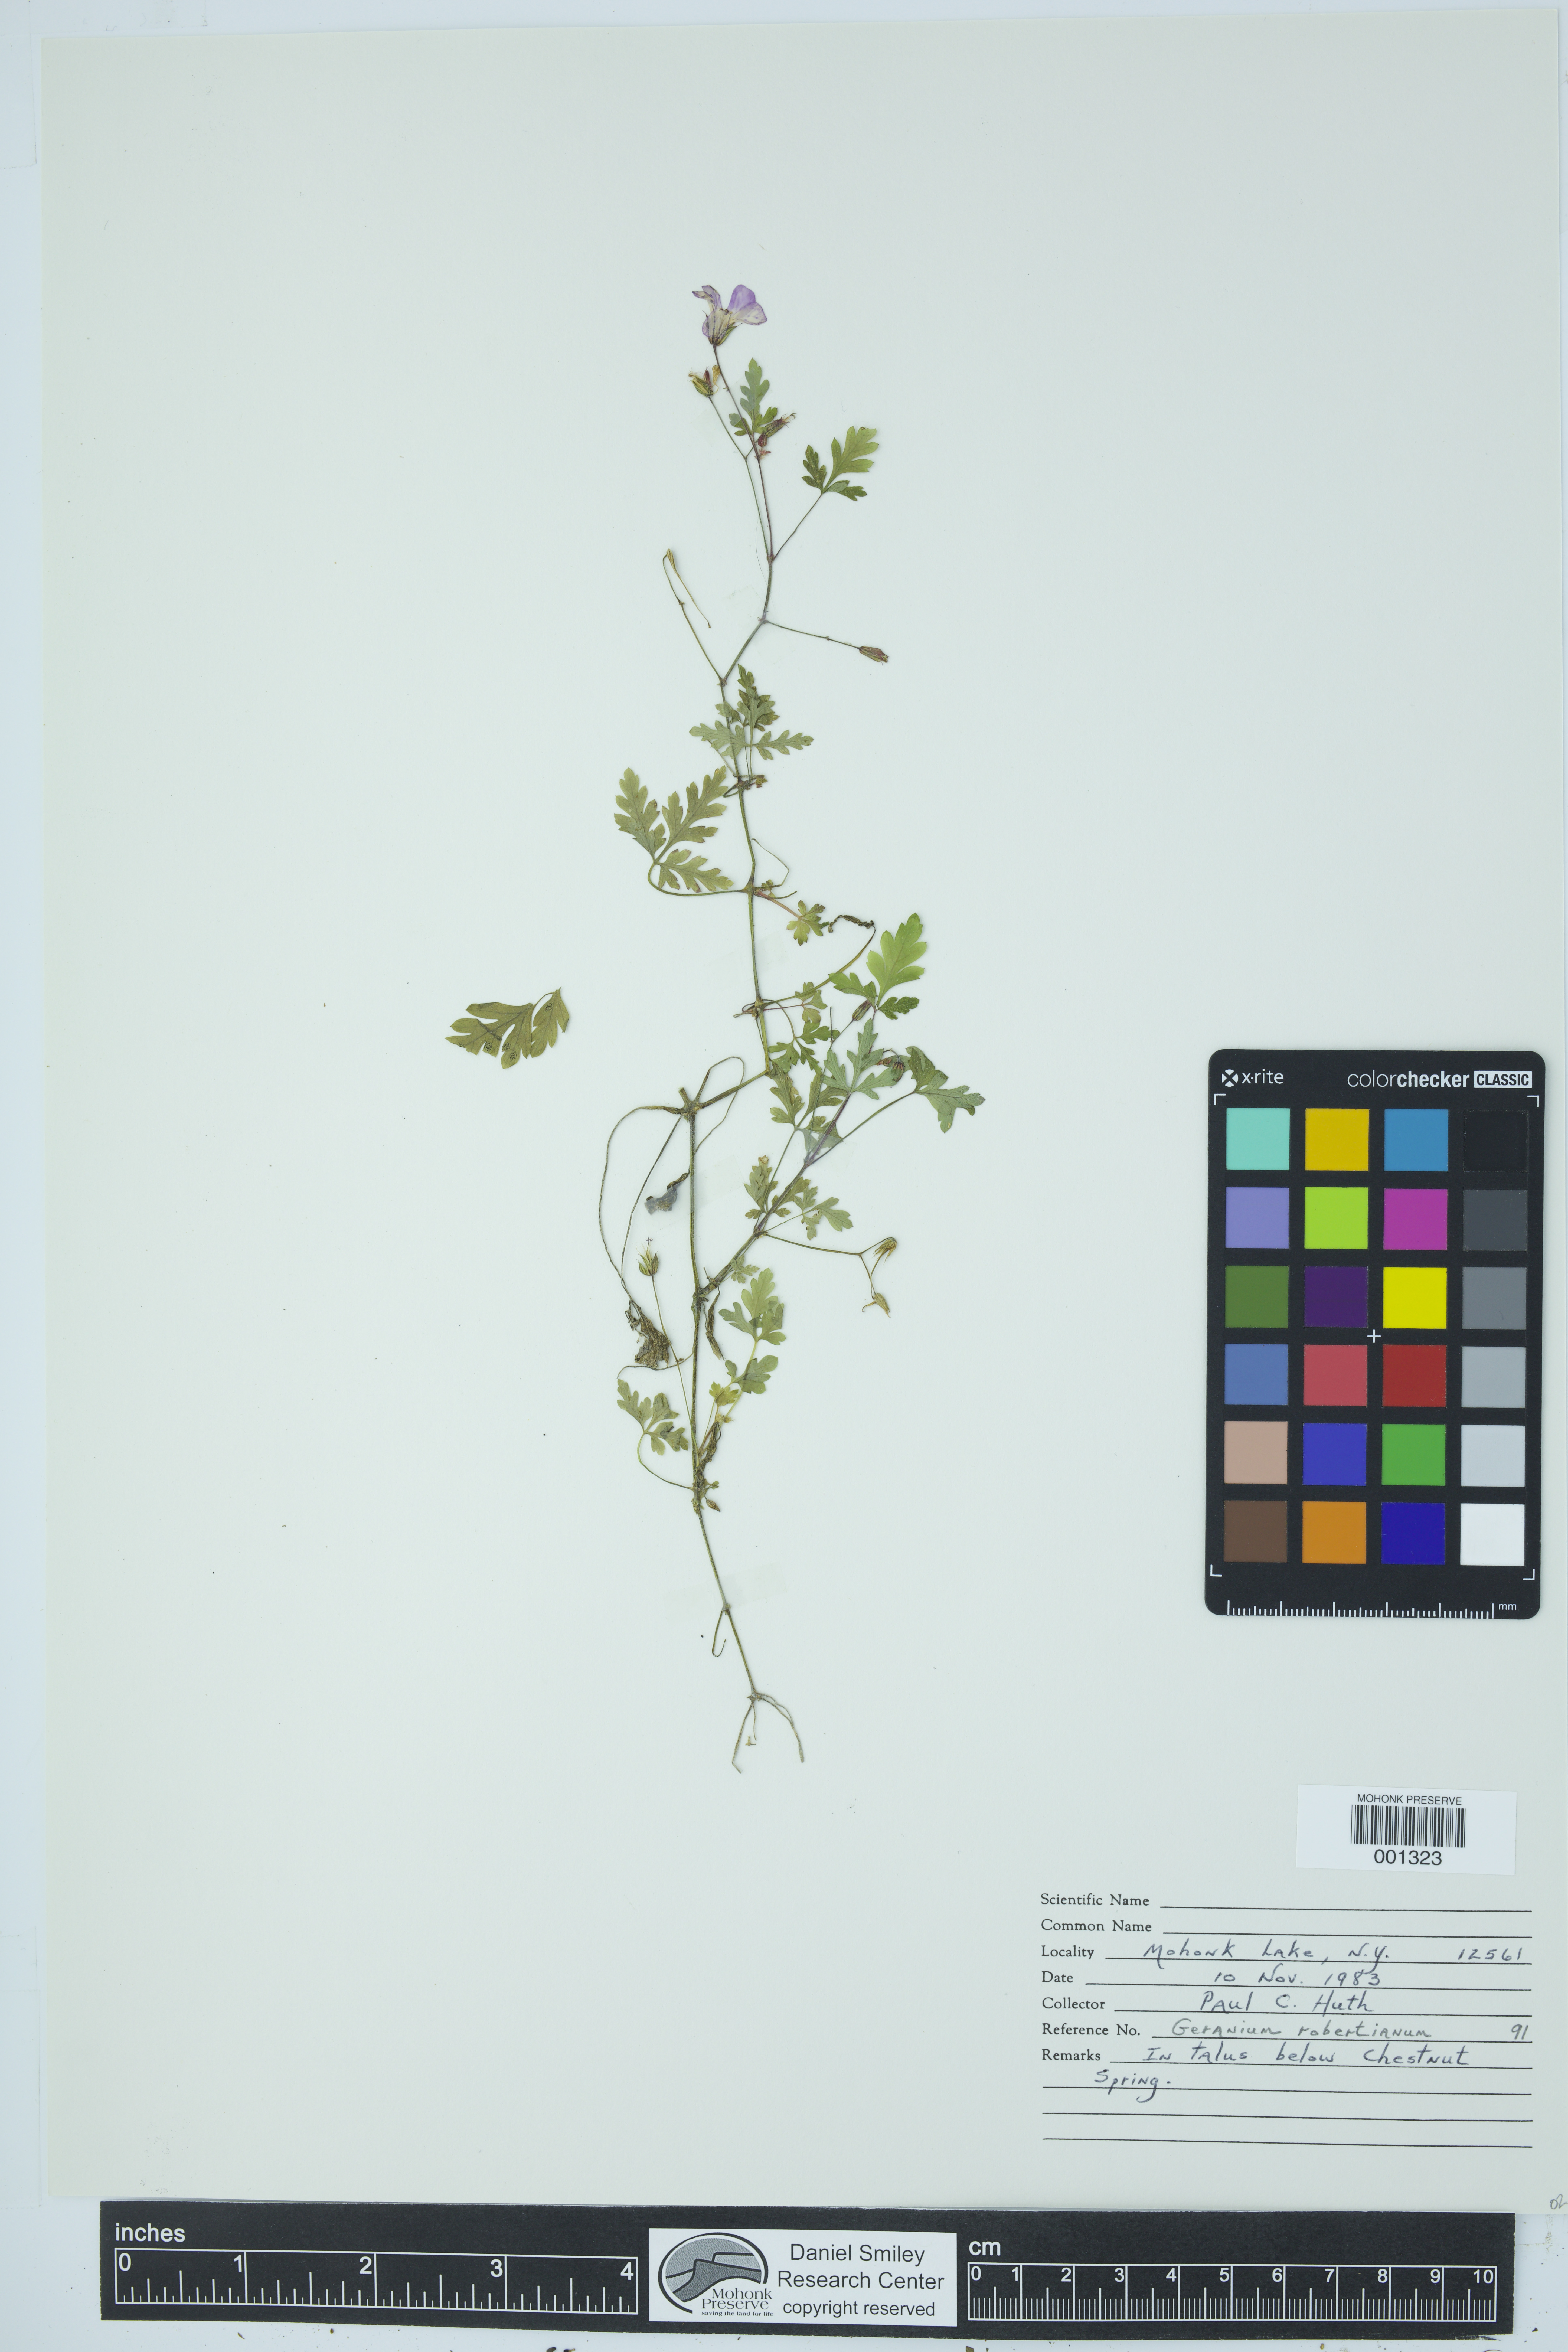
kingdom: Plantae
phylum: Tracheophyta
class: Magnoliopsida
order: Geraniales
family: Geraniaceae
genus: Geranium
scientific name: Geranium robertianum
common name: Herb-robert
